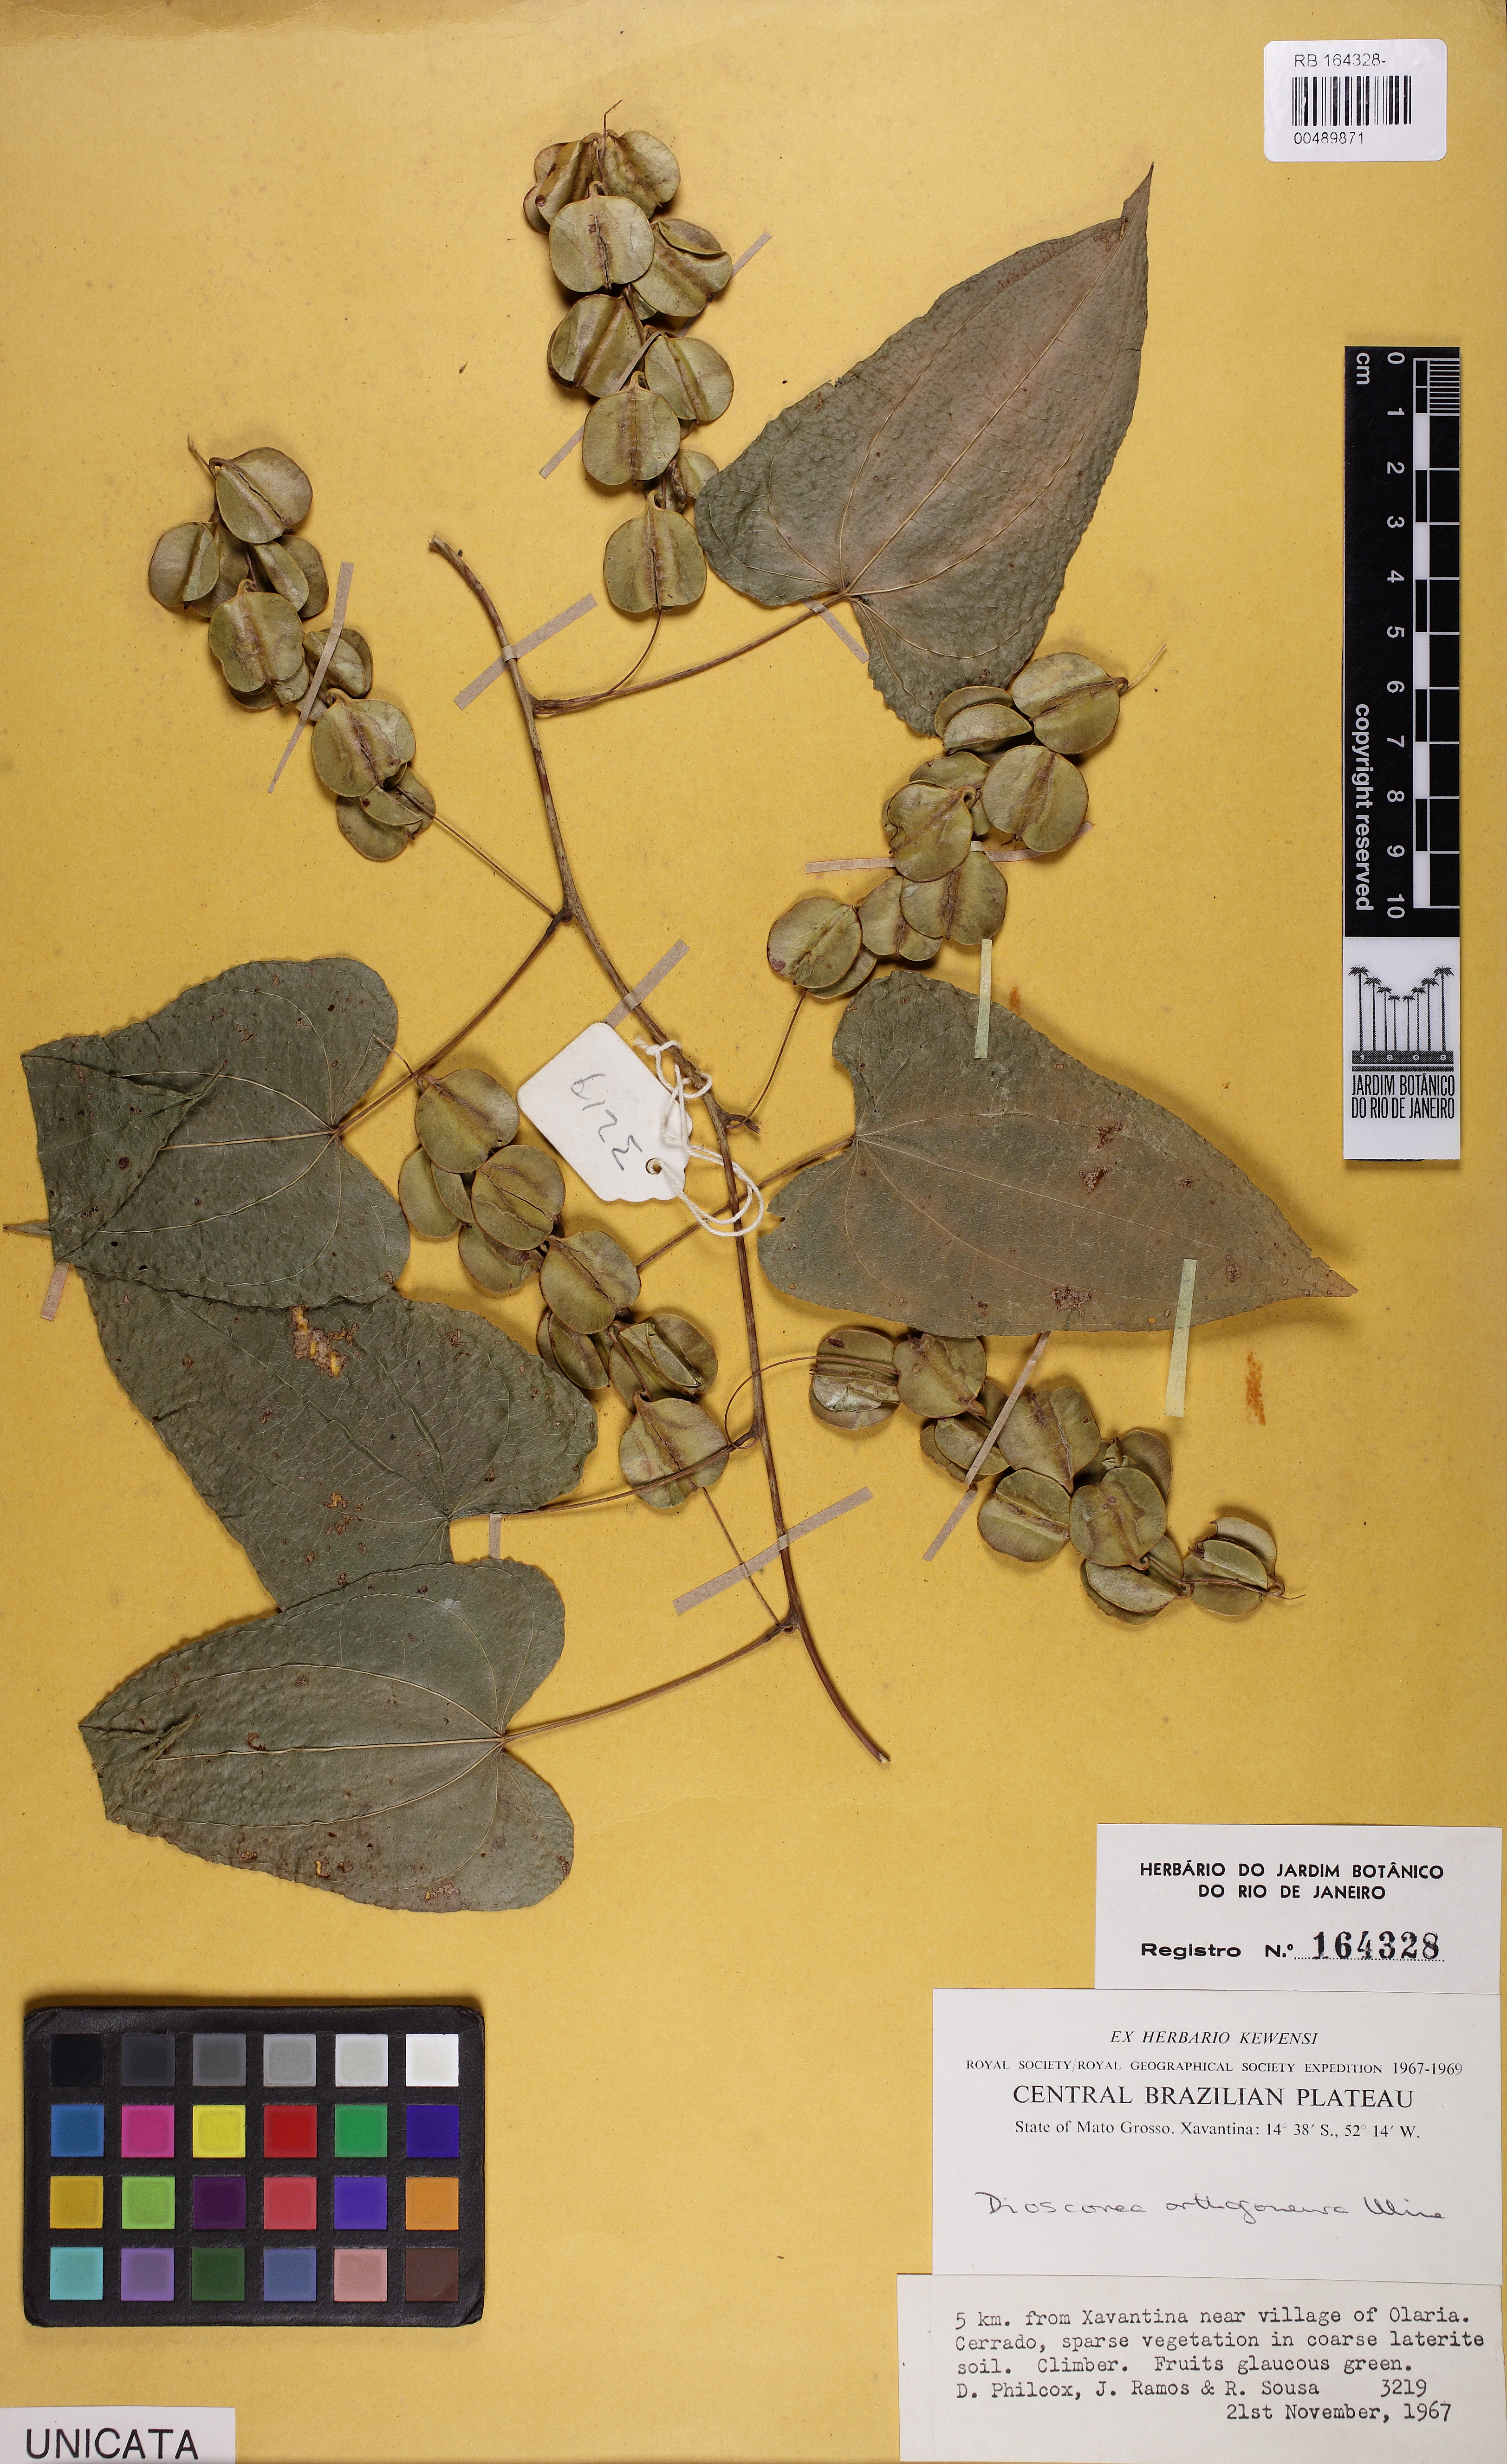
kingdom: Plantae
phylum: Tracheophyta
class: Liliopsida
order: Dioscoreales
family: Dioscoreaceae
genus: Dioscorea
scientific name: Dioscorea orthogoneura
